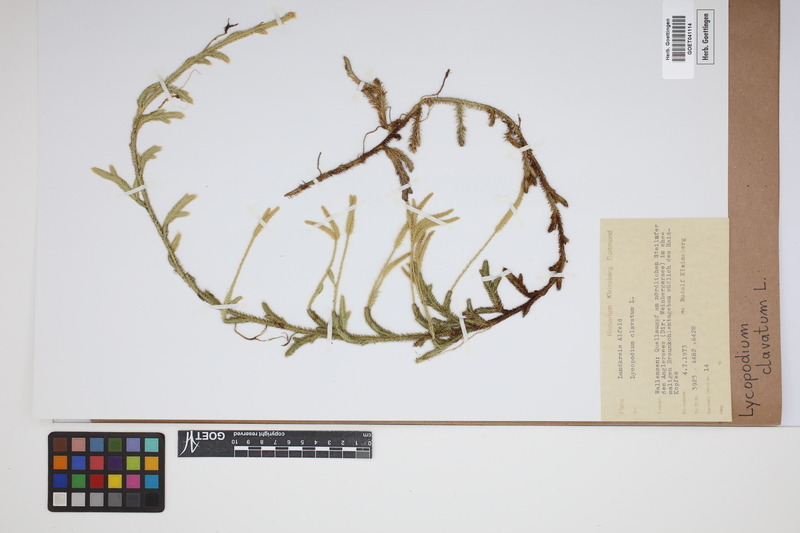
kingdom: Plantae
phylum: Tracheophyta
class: Lycopodiopsida
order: Lycopodiales
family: Lycopodiaceae
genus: Lycopodium
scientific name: Lycopodium clavatum
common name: Stag's-horn clubmoss
